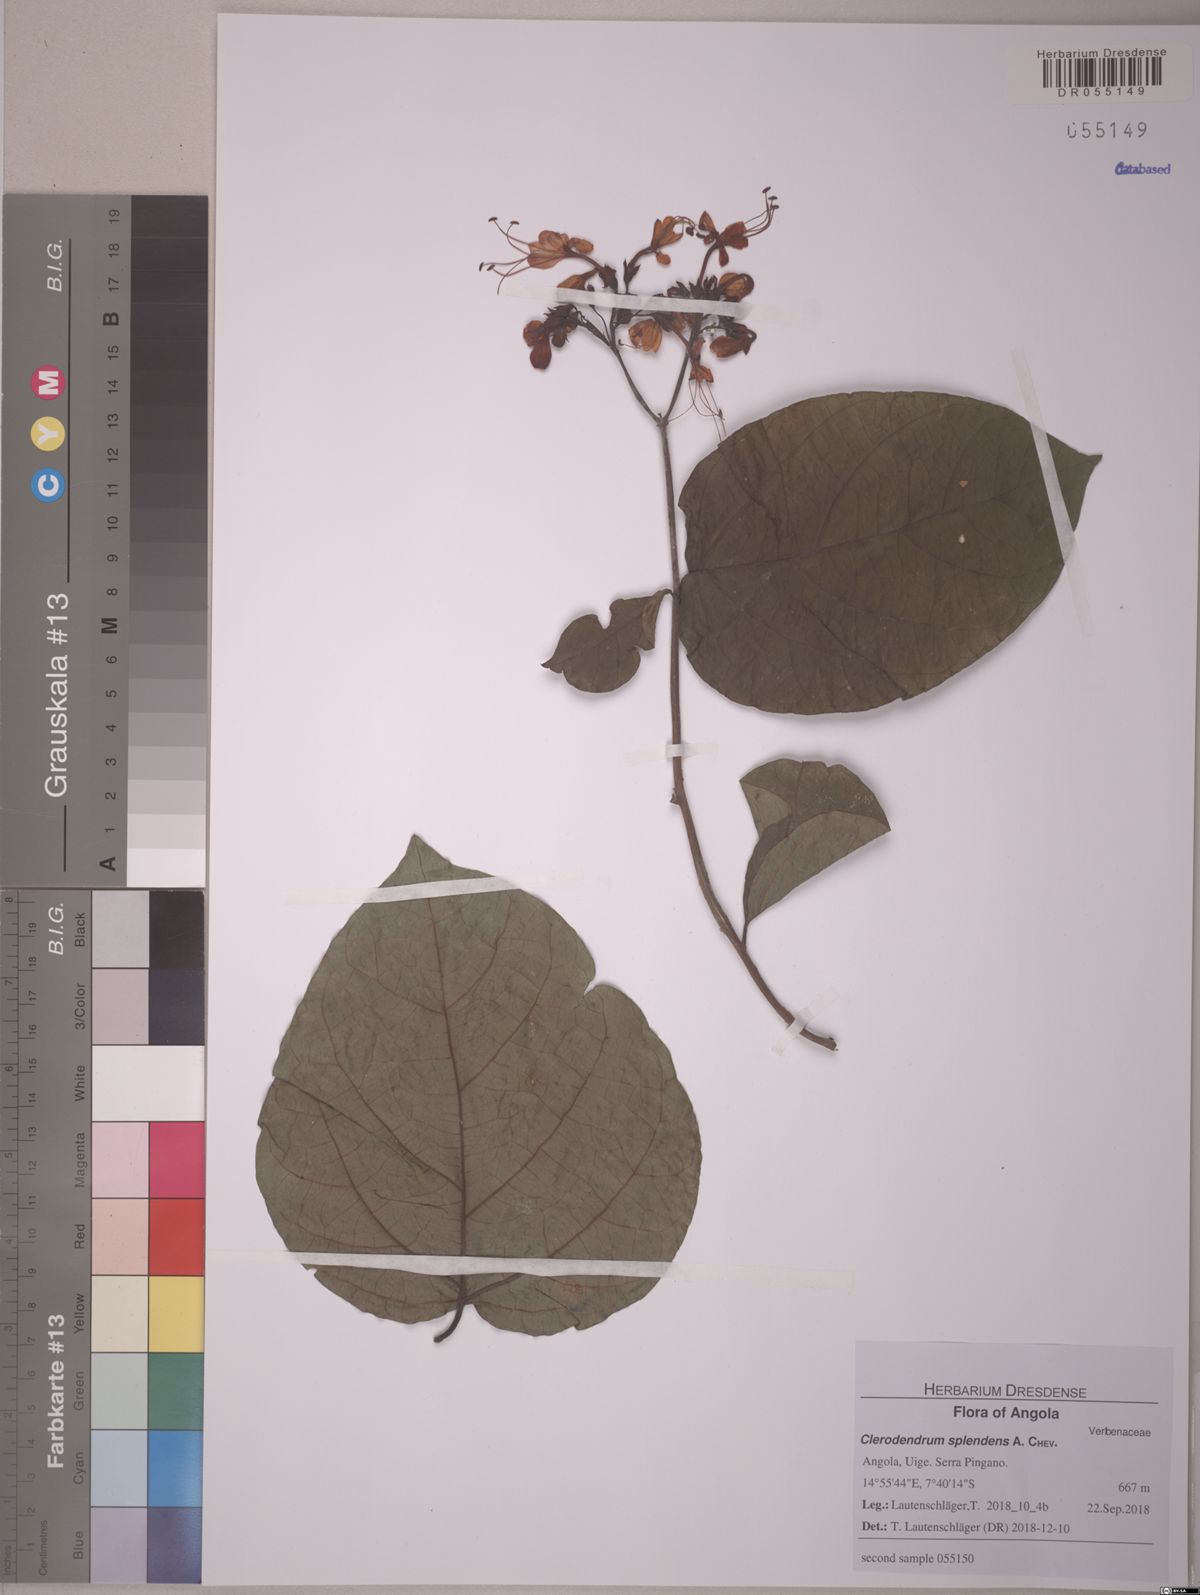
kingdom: Plantae
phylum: Tracheophyta
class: Magnoliopsida
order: Lamiales
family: Lamiaceae
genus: Clerodendrum
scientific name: Clerodendrum splendens
